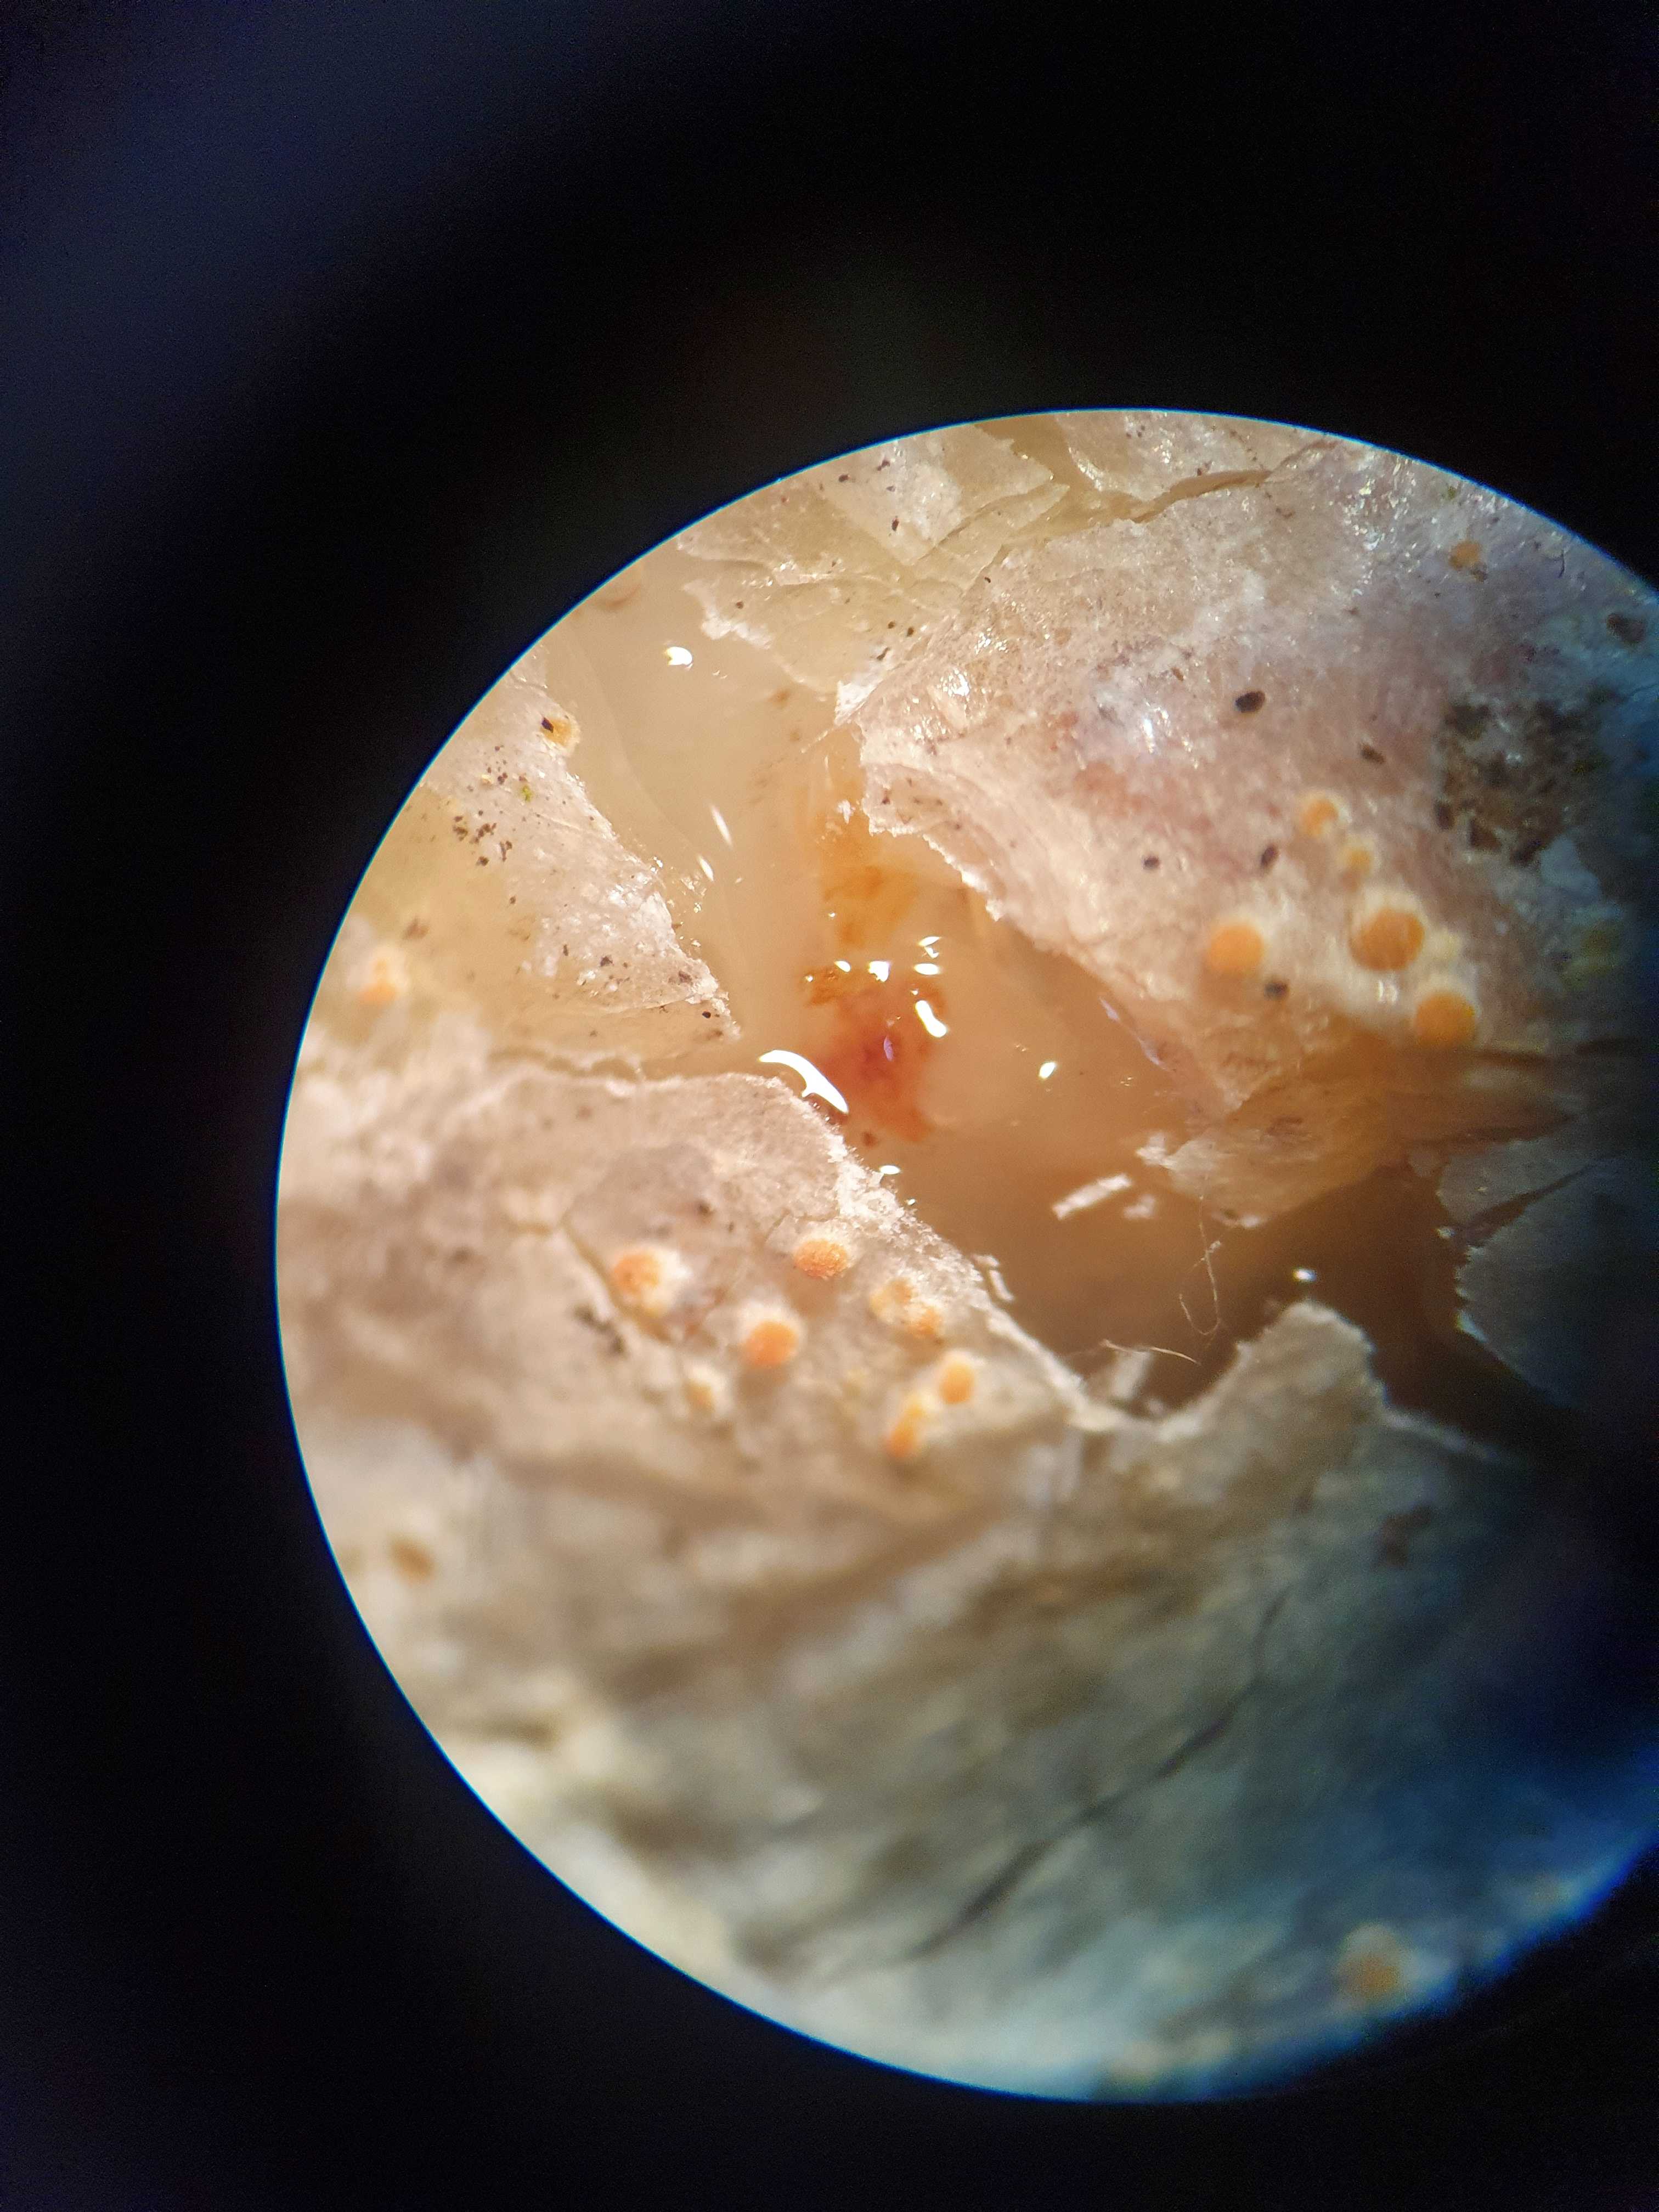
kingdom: Fungi
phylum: Ascomycota
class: Sareomycetes
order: Sareales
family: Sareaceae
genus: Sarea
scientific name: Sarea resinae
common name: orangegul harpiksskive
